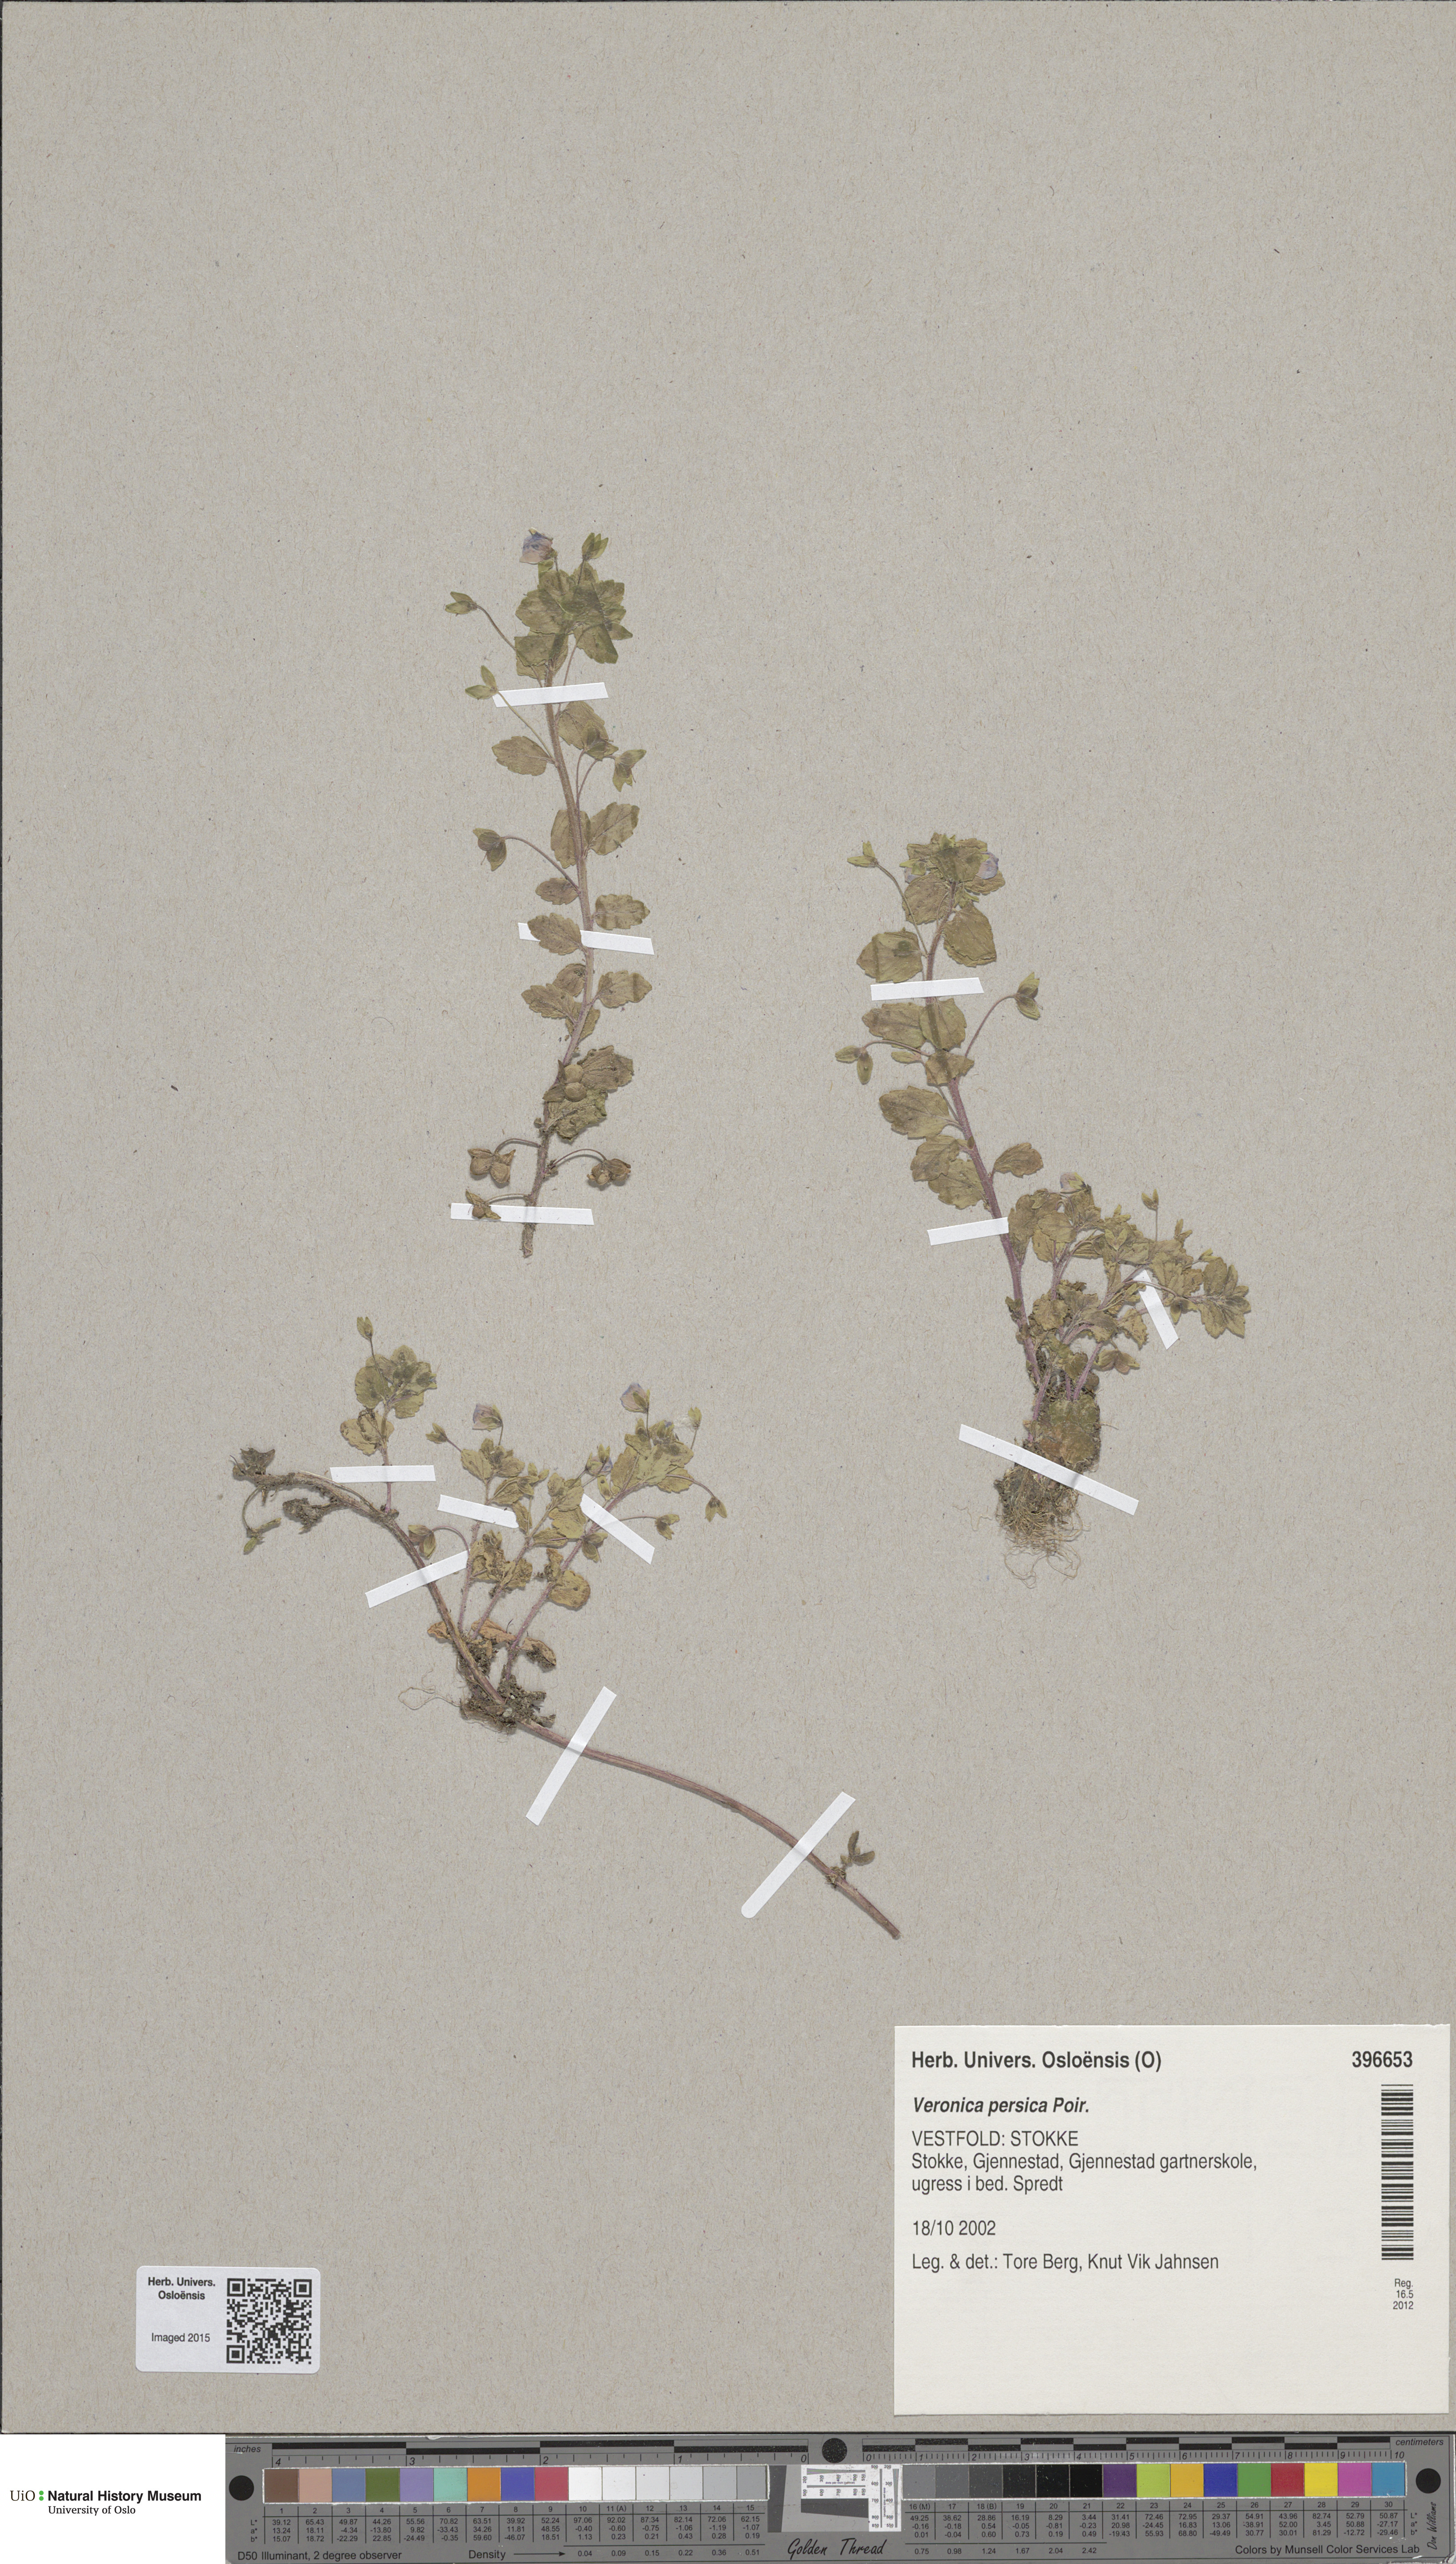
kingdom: Plantae
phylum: Tracheophyta
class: Magnoliopsida
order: Lamiales
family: Plantaginaceae
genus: Veronica
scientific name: Veronica persica
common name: Common field-speedwell
